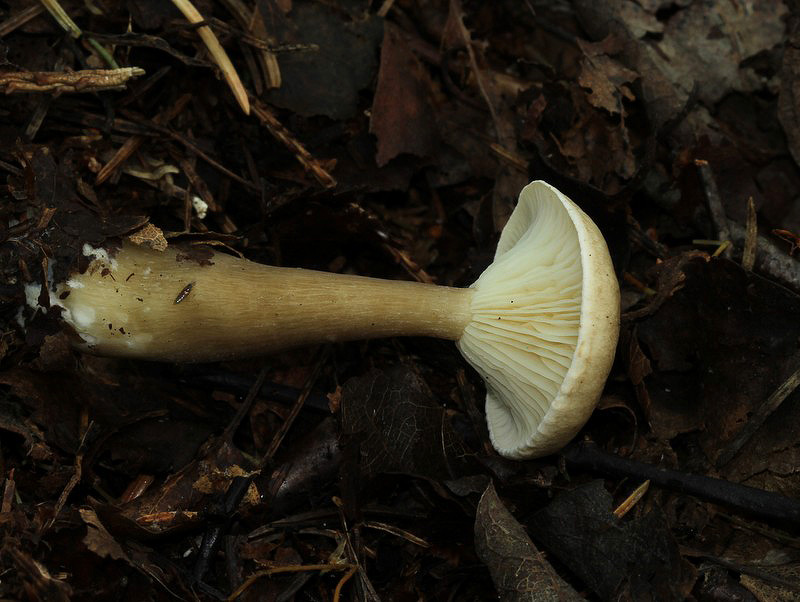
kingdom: Fungi
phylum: Basidiomycota
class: Agaricomycetes
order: Agaricales
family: Hygrophoraceae
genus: Ampulloclitocybe
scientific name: Ampulloclitocybe clavipes
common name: køllefod
